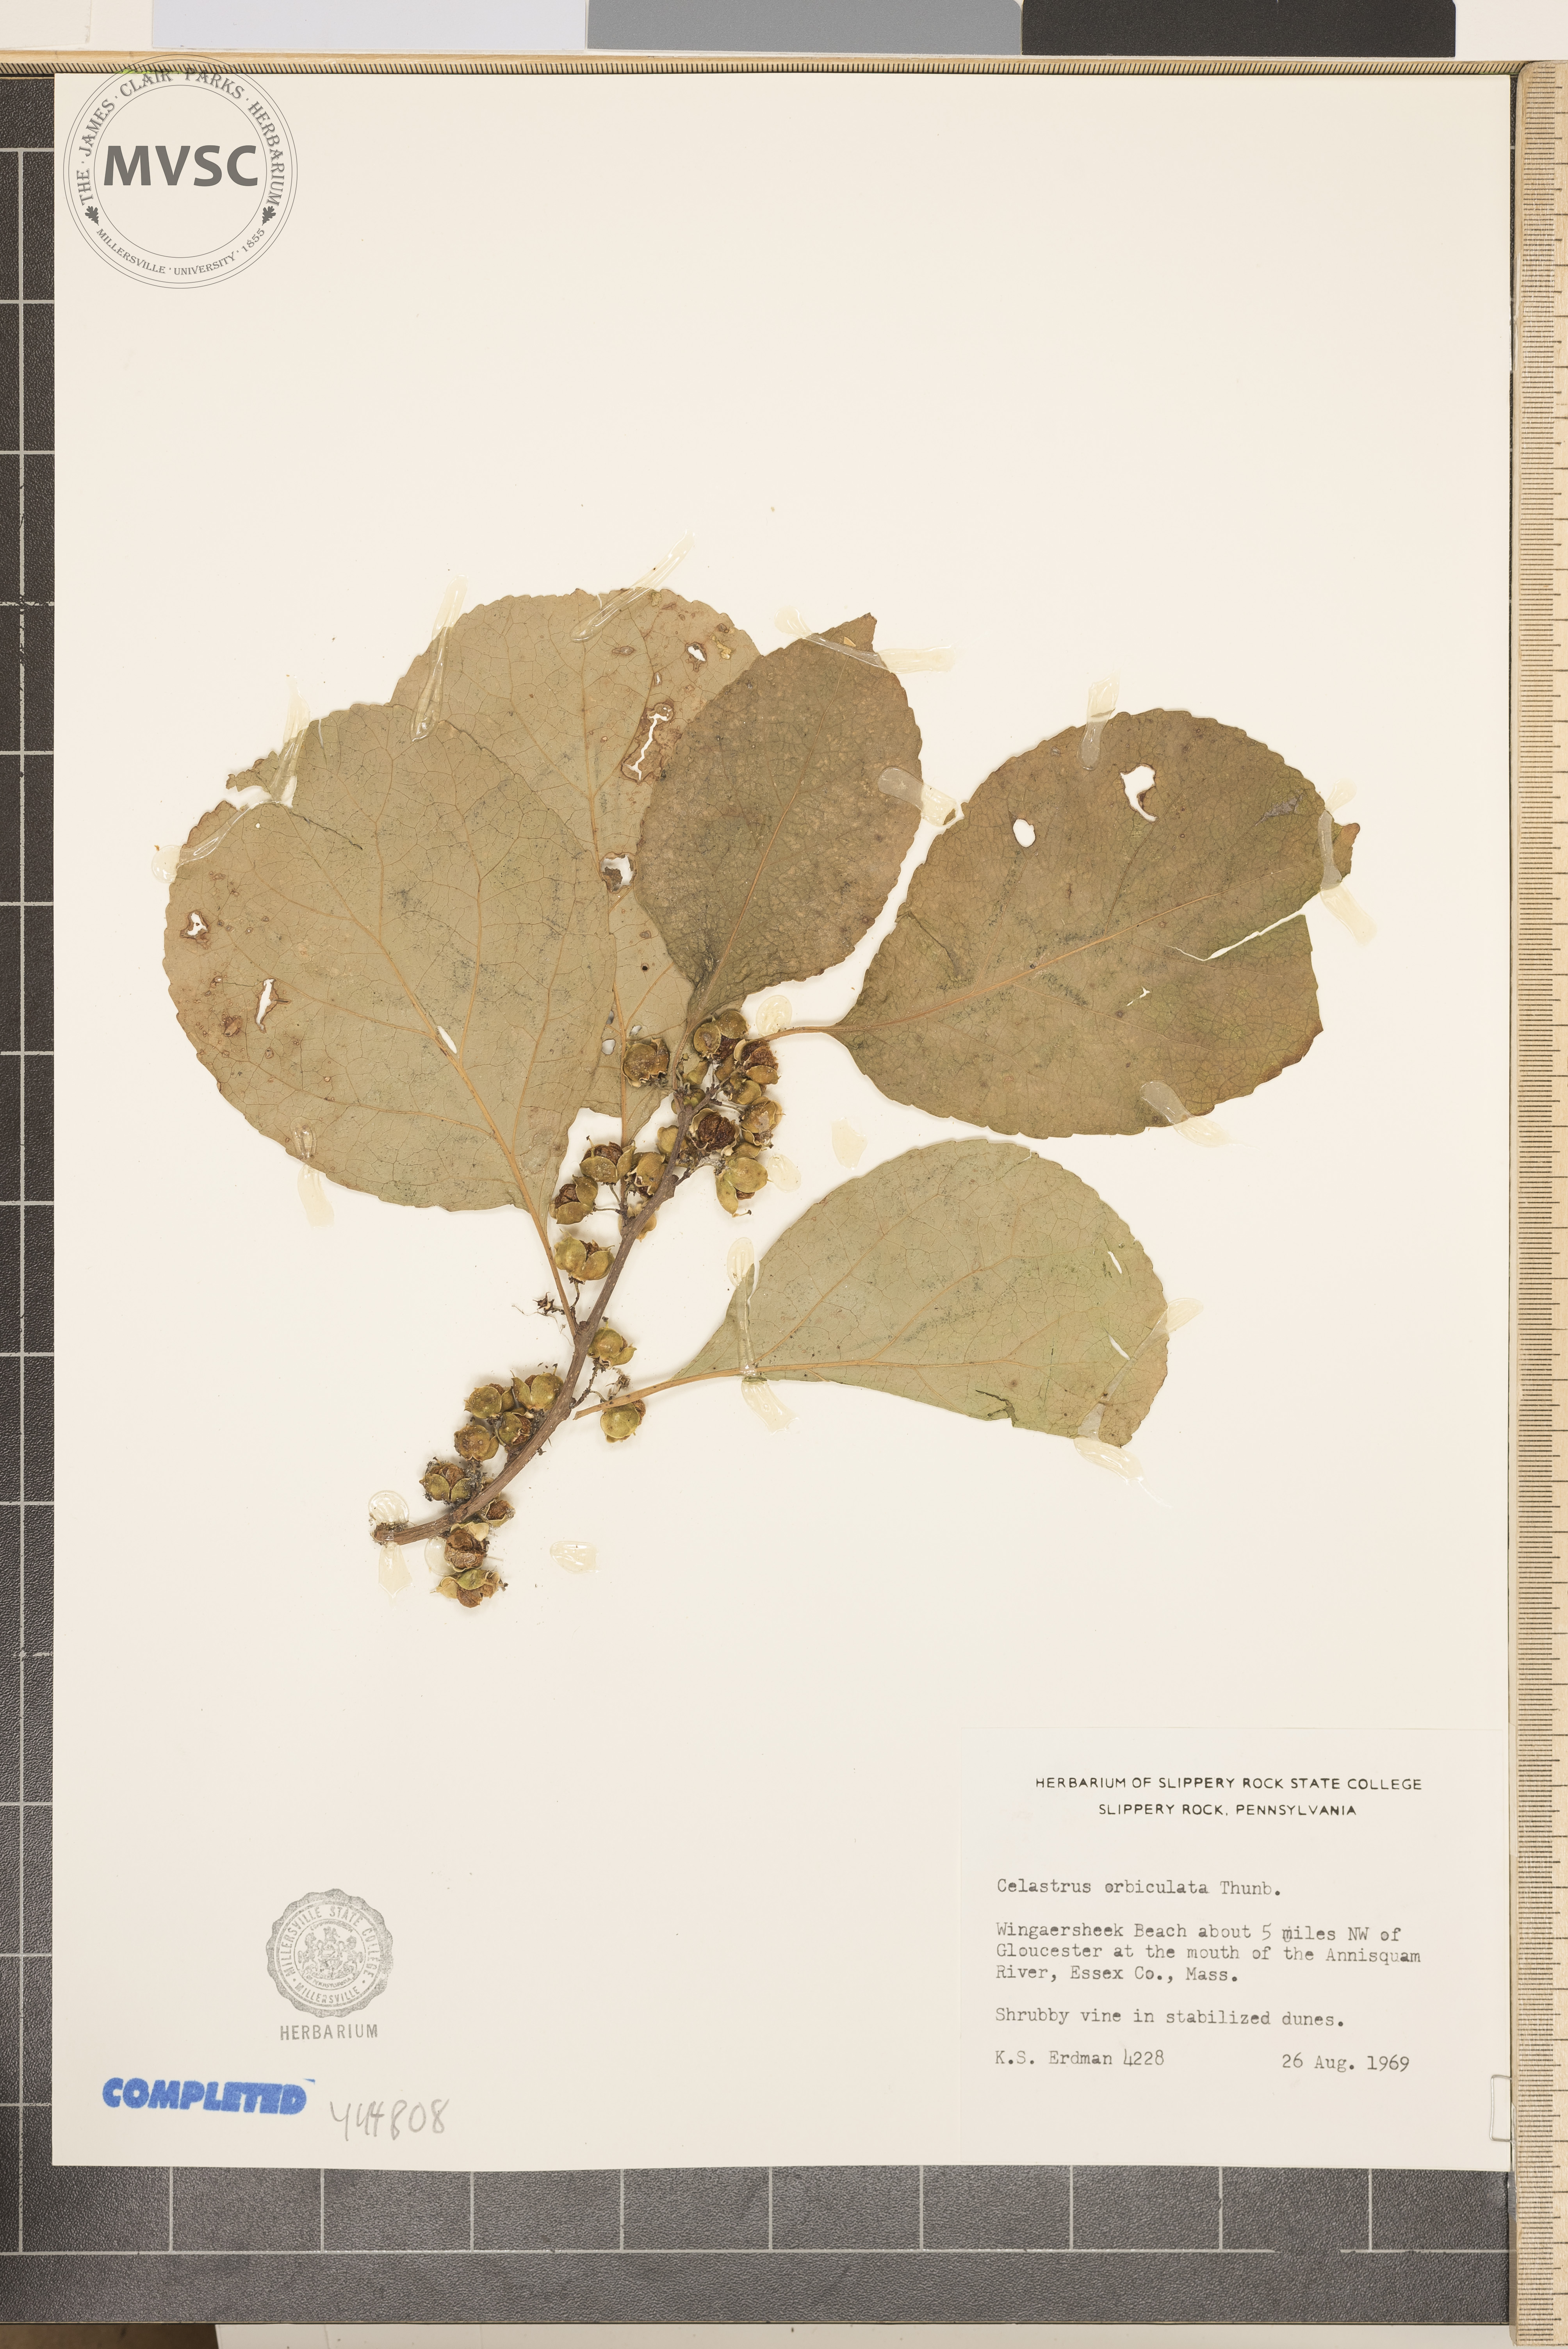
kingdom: Plantae
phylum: Tracheophyta
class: Magnoliopsida
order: Celastrales
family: Celastraceae
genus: Celastrus
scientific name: Celastrus orbiculatus
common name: Oriental bittersweet
